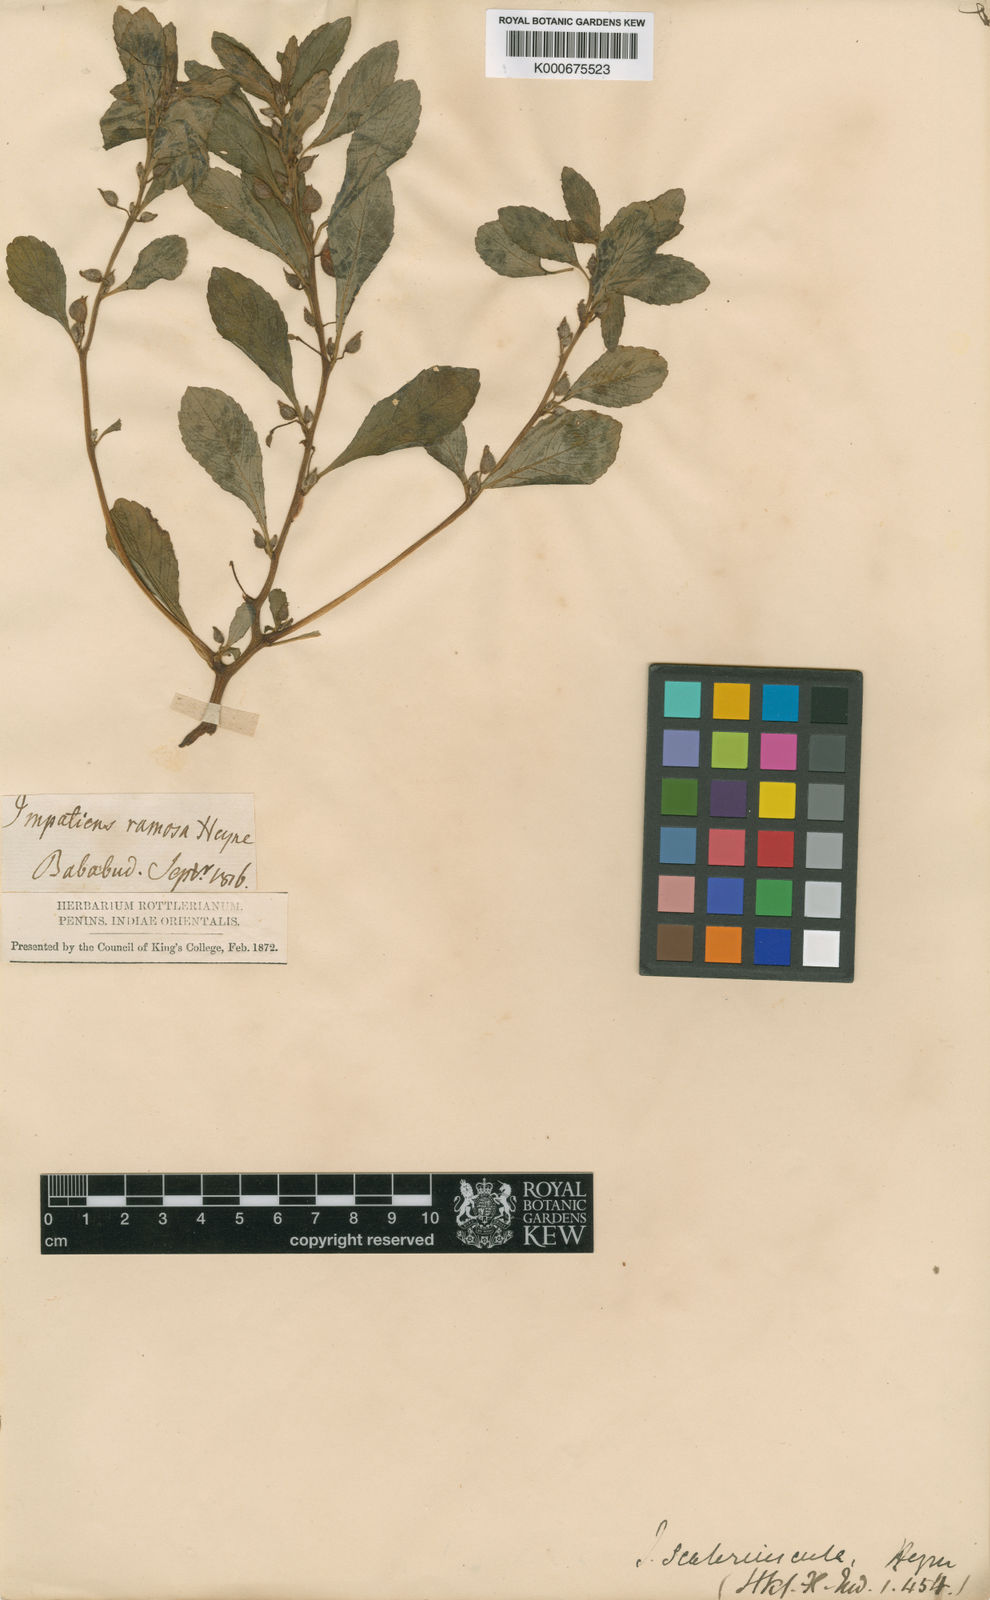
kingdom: Plantae
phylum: Tracheophyta
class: Magnoliopsida
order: Ericales
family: Balsaminaceae
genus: Impatiens
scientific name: Impatiens ramosa
